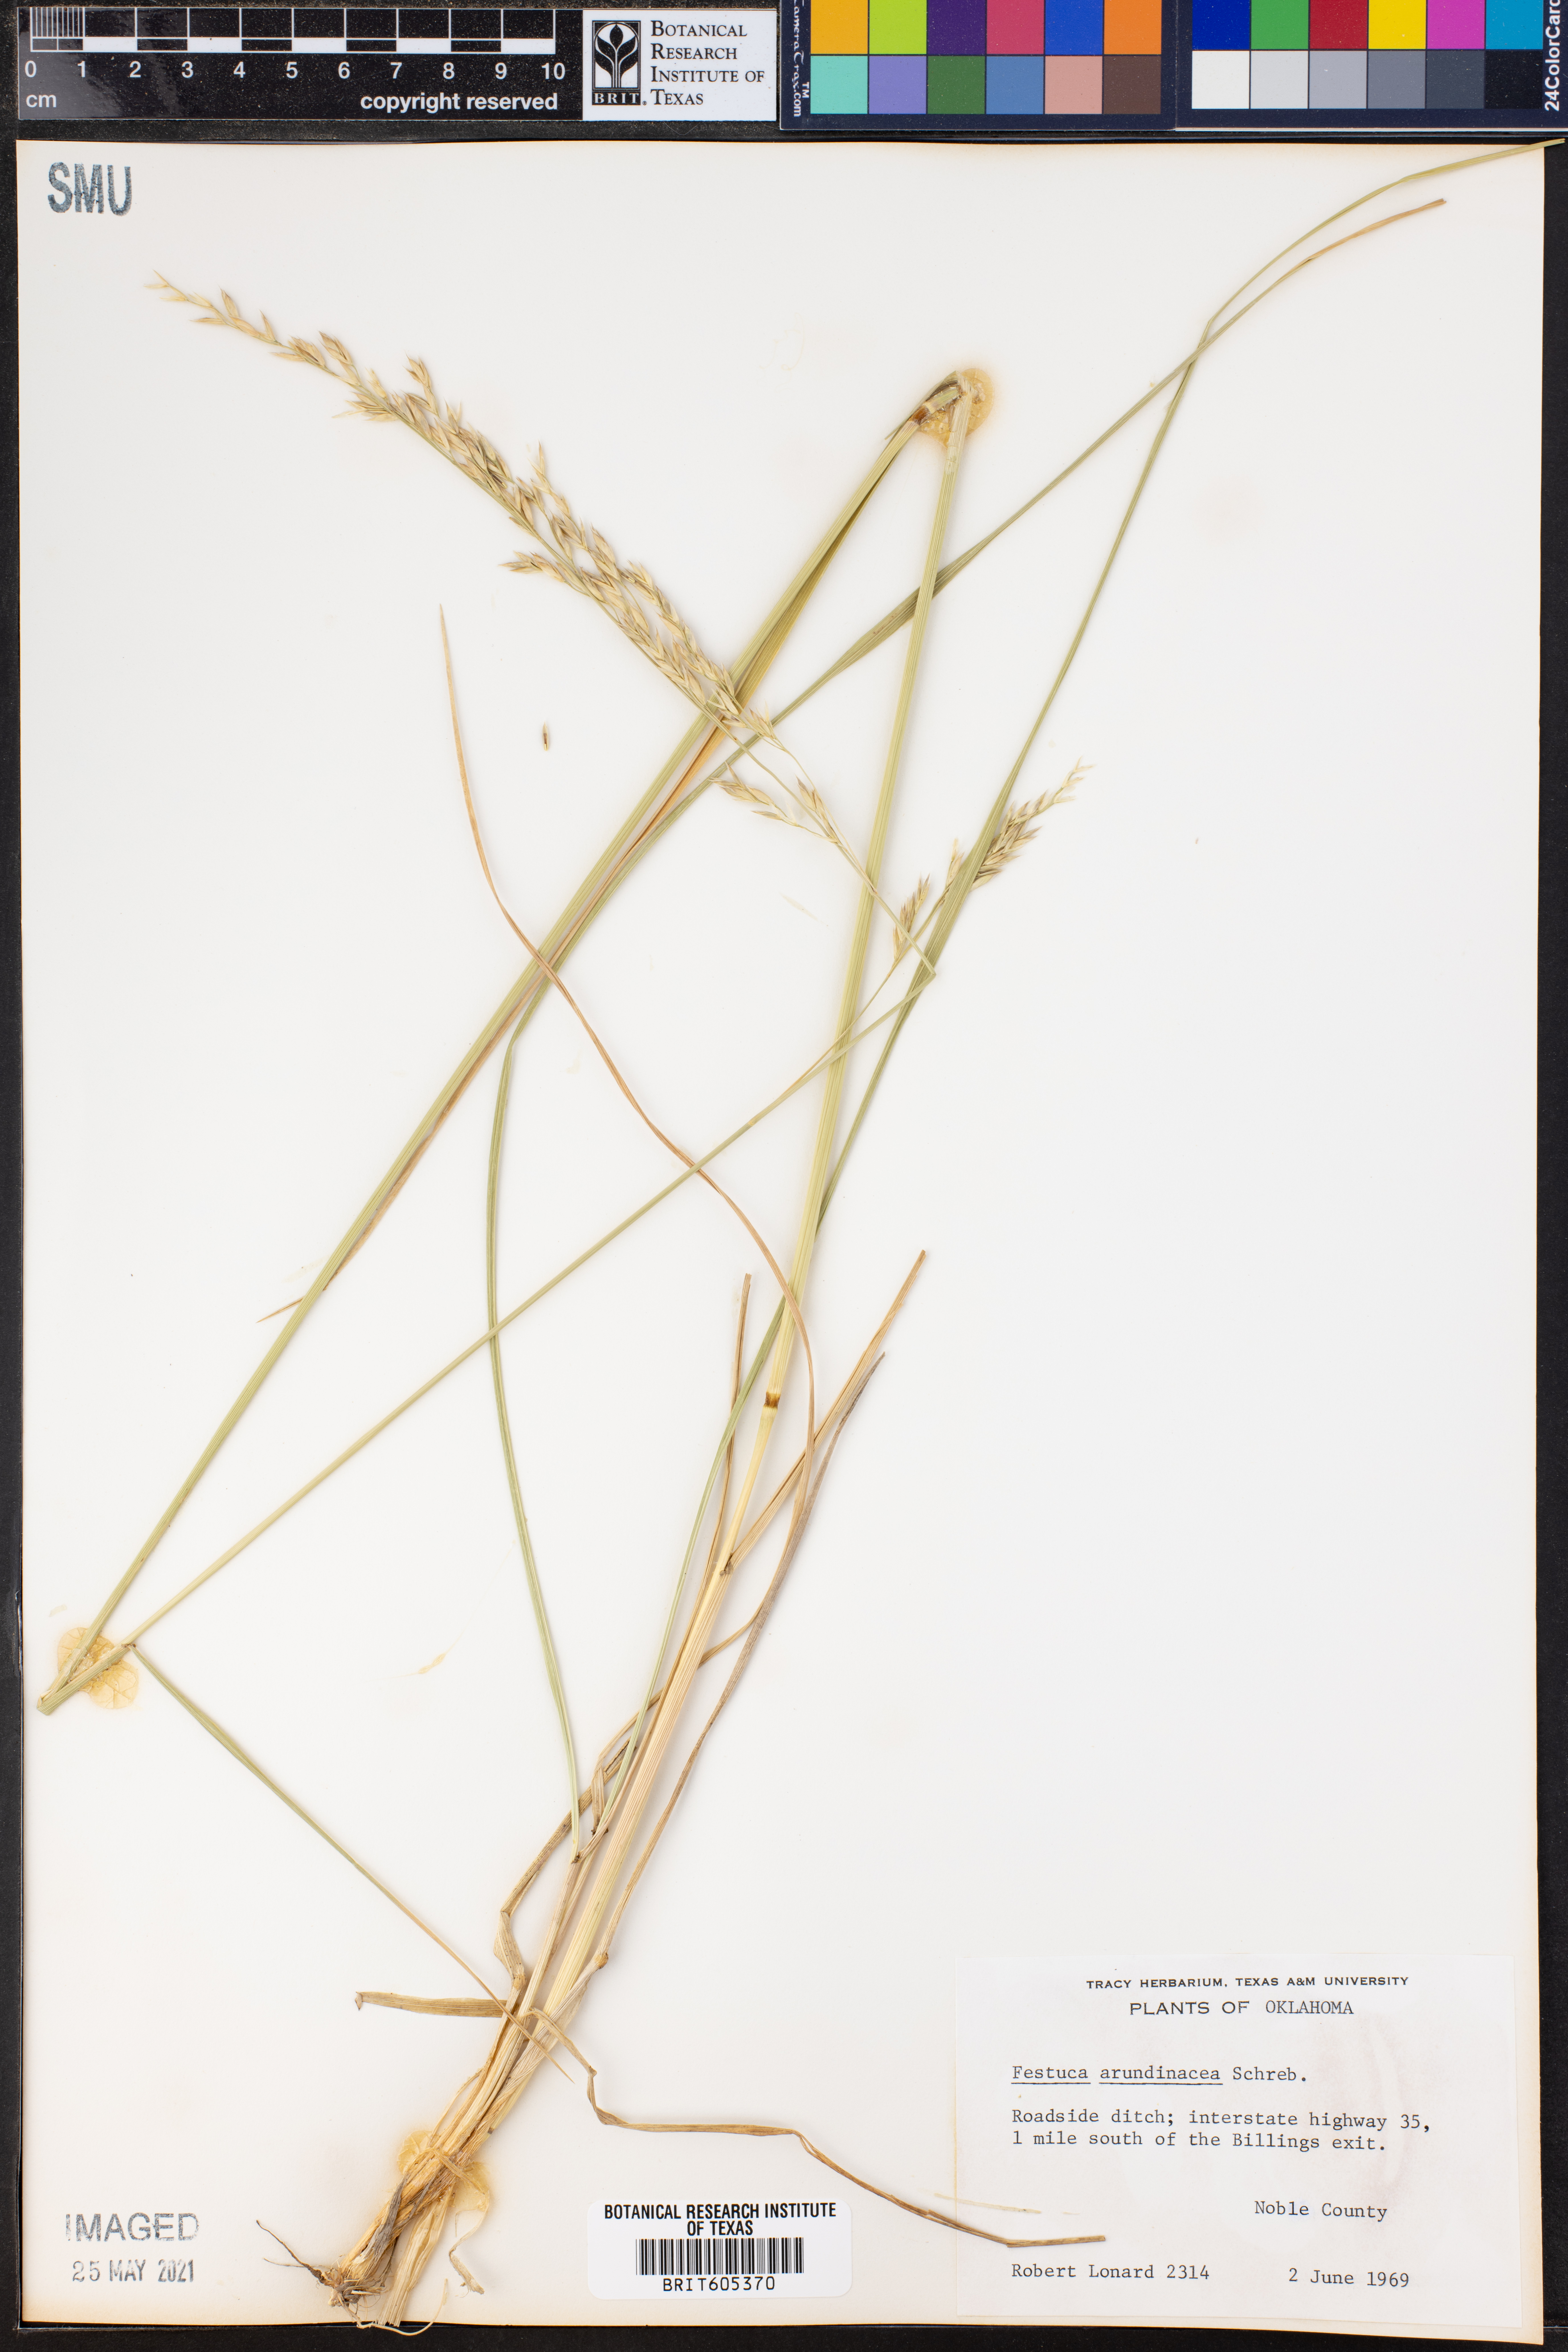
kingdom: Plantae
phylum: Tracheophyta
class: Liliopsida
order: Poales
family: Poaceae
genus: Lolium
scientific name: Lolium arundinaceum
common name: Reed fescue
